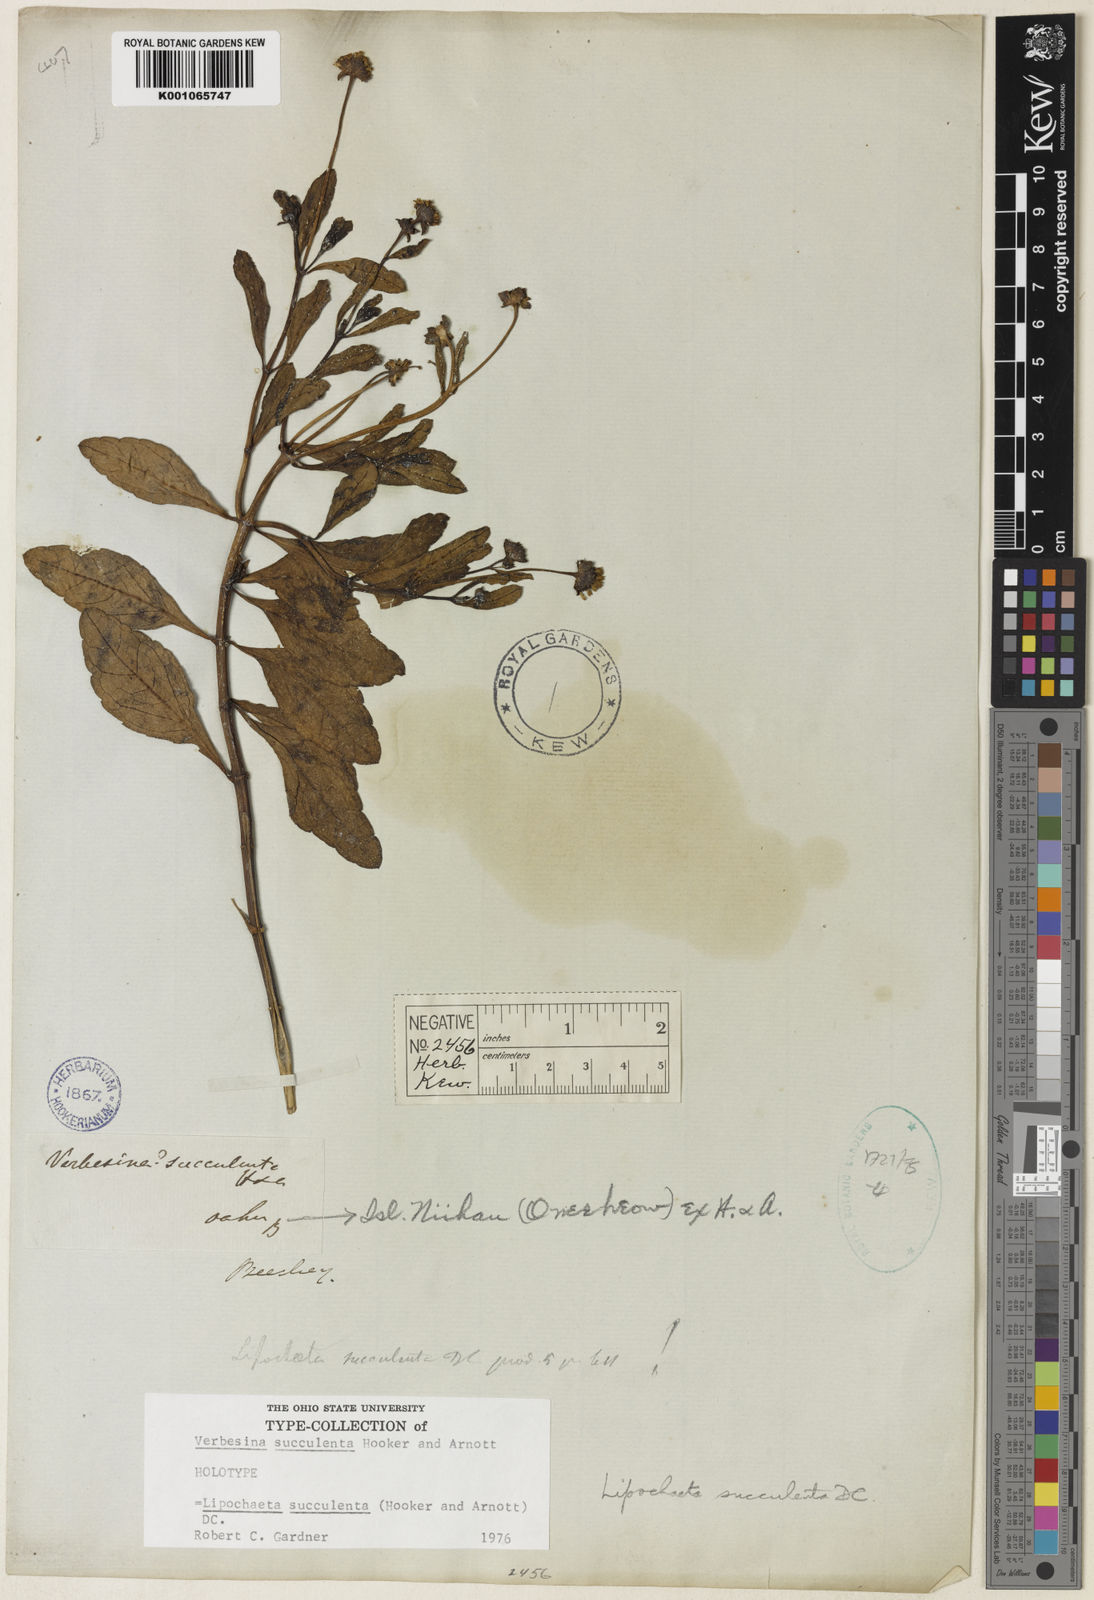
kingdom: Plantae
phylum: Tracheophyta
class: Magnoliopsida
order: Asterales
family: Asteraceae
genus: Lipochaeta
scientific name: Lipochaeta succulenta
